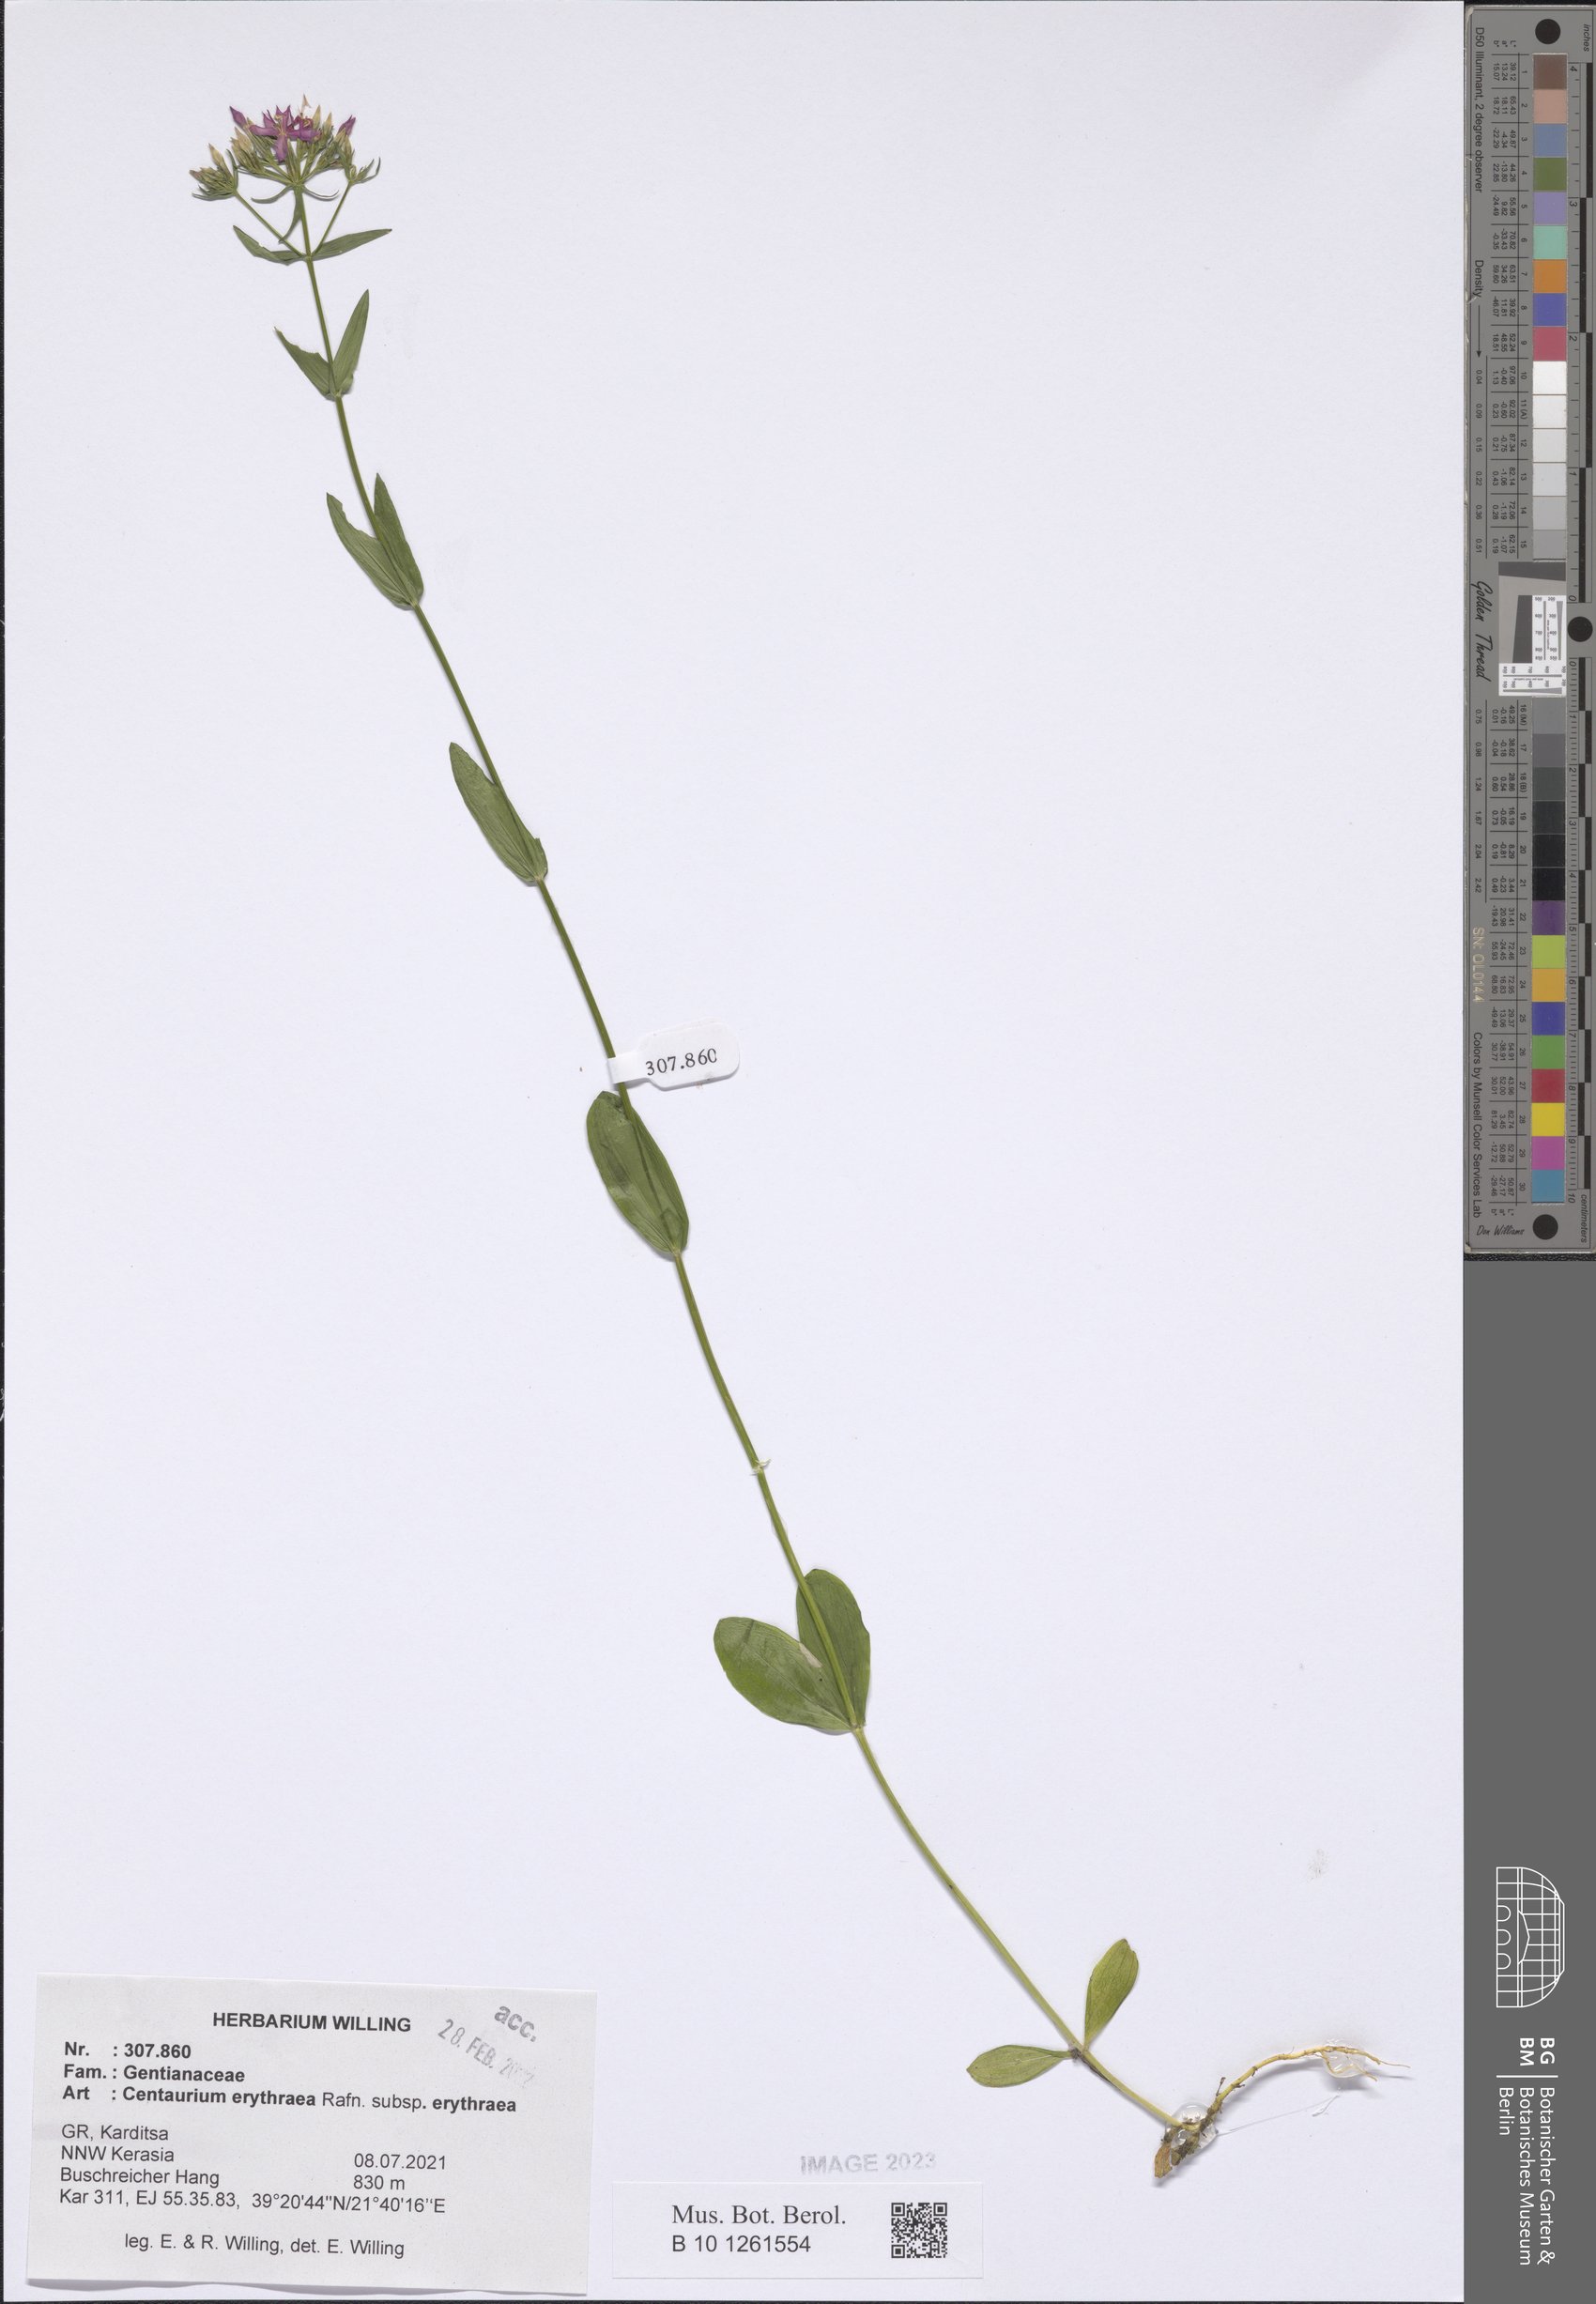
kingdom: Plantae
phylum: Tracheophyta
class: Magnoliopsida
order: Gentianales
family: Gentianaceae
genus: Centaurium
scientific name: Centaurium erythraea
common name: Common centaury
